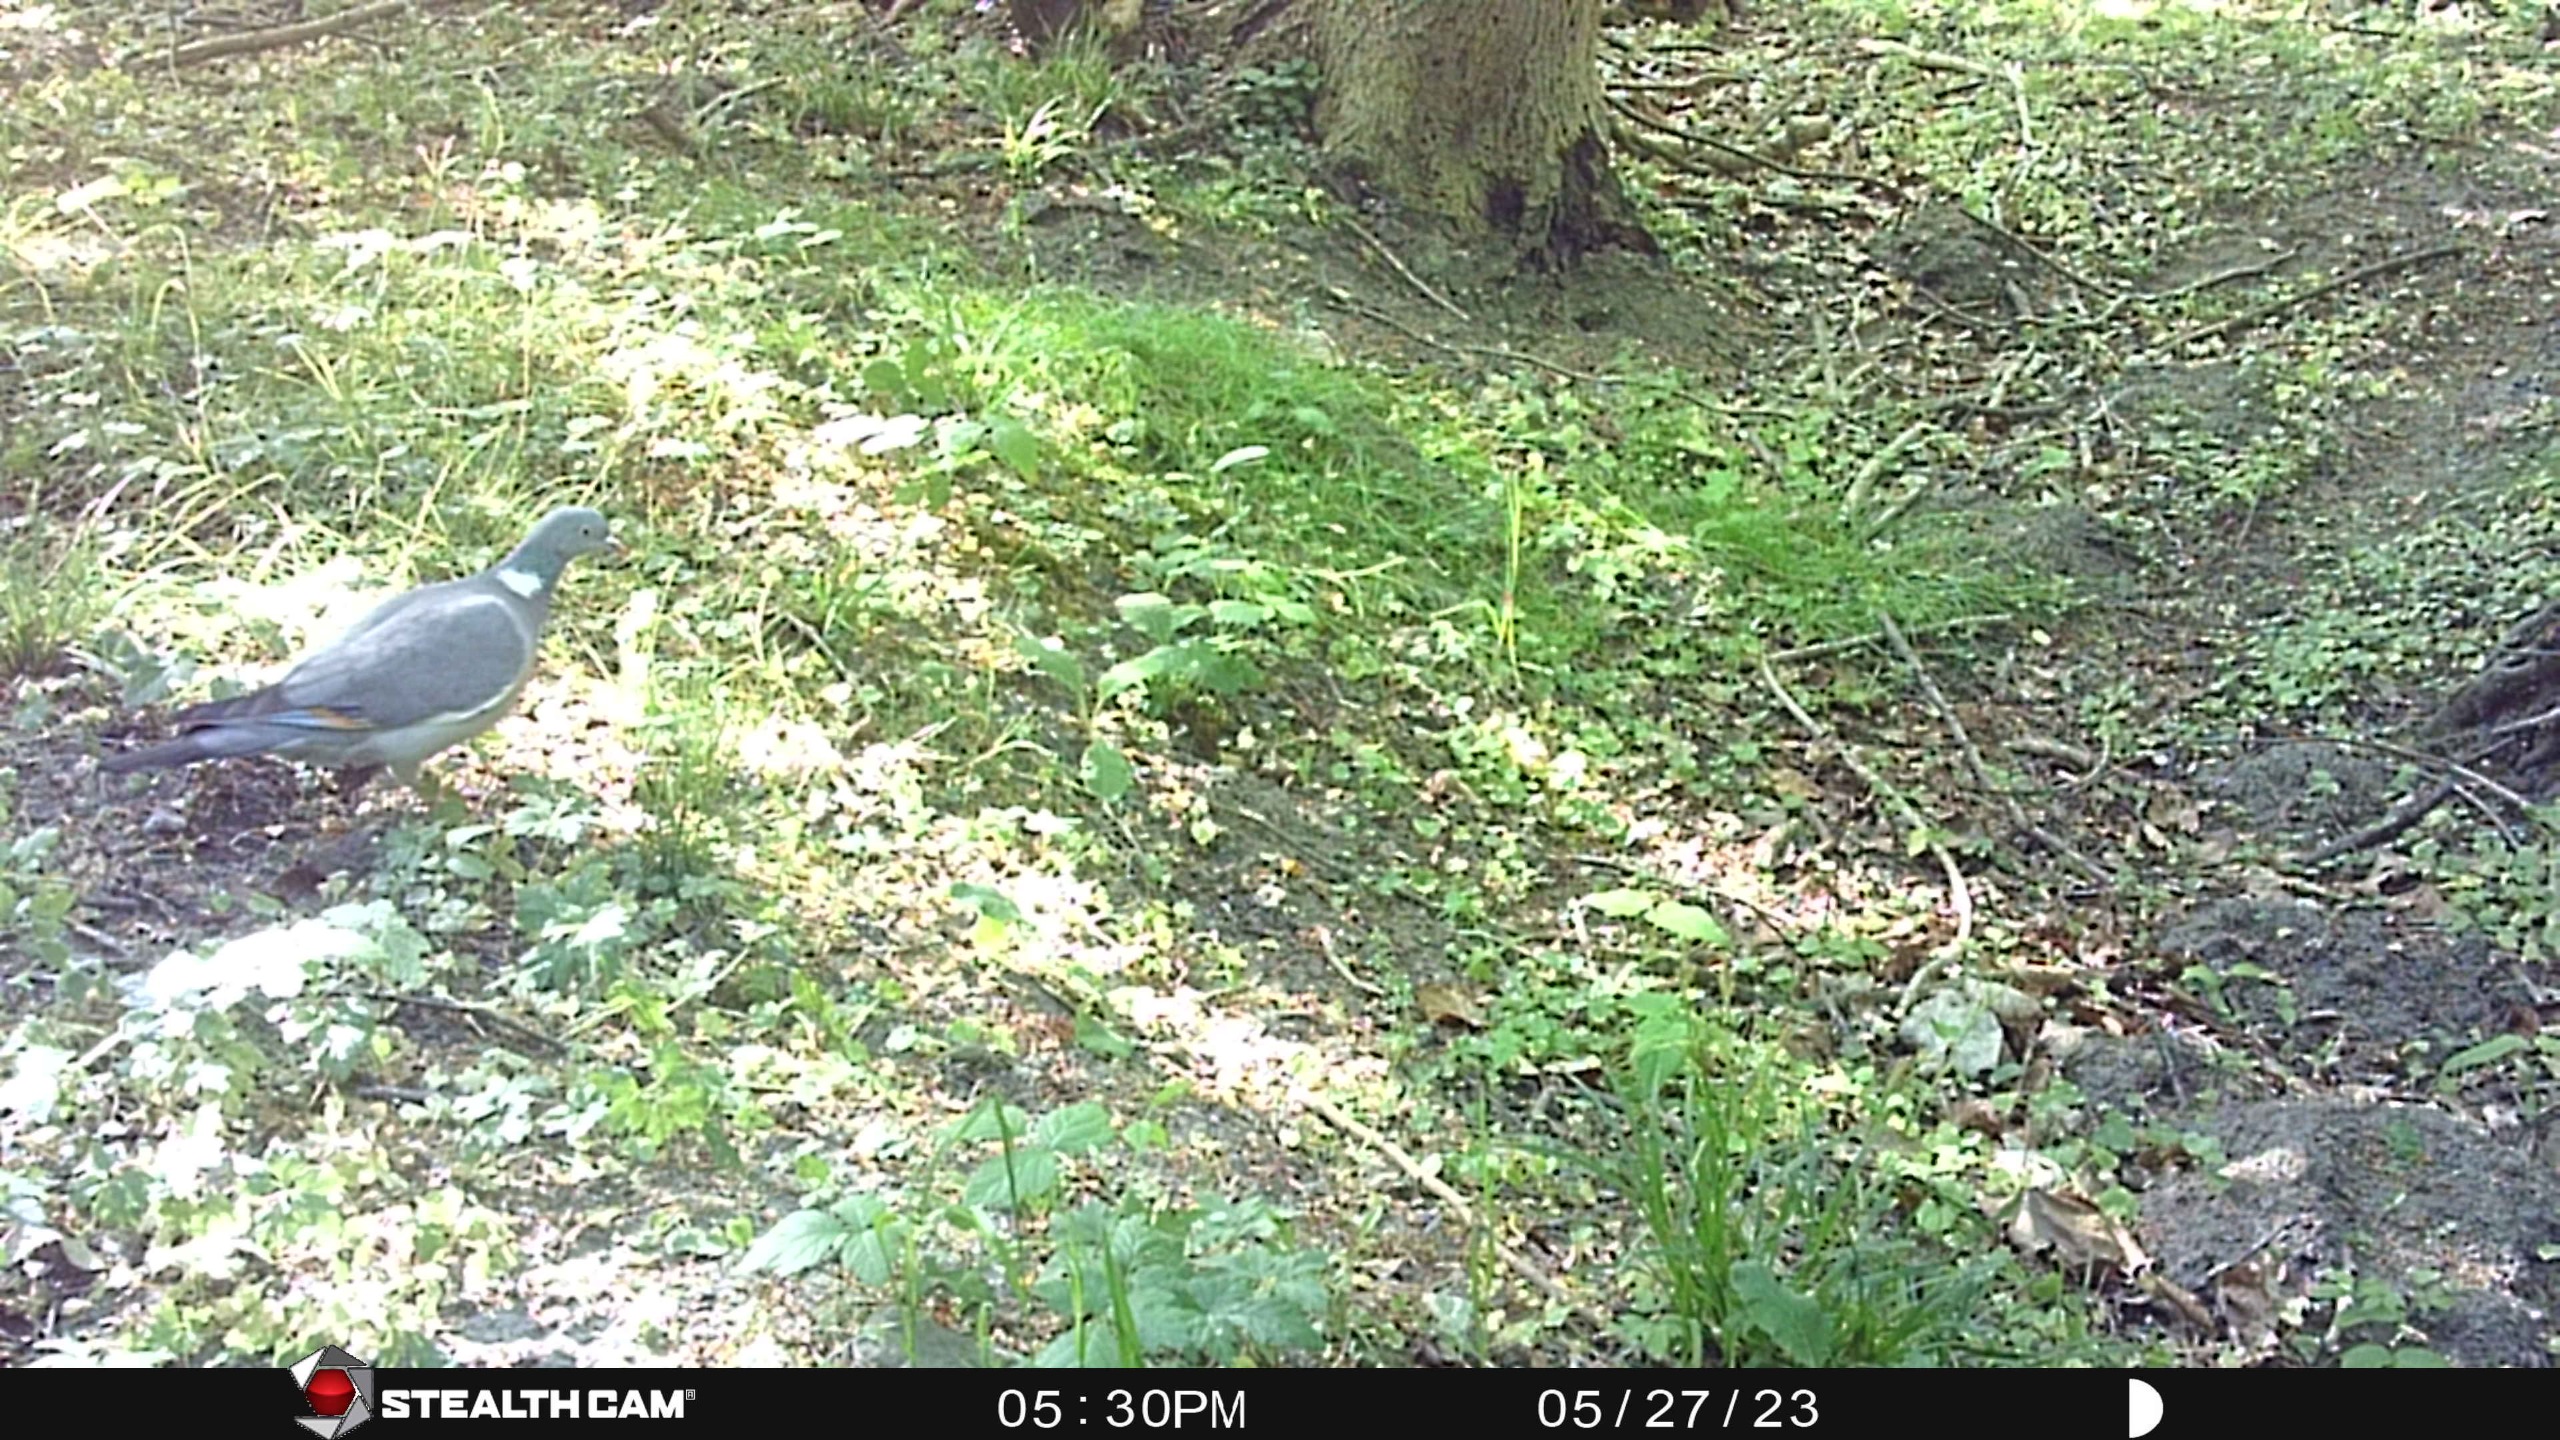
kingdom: Animalia
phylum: Chordata
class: Aves
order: Columbiformes
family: Columbidae
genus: Columba
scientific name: Columba palumbus
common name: Ringdue
